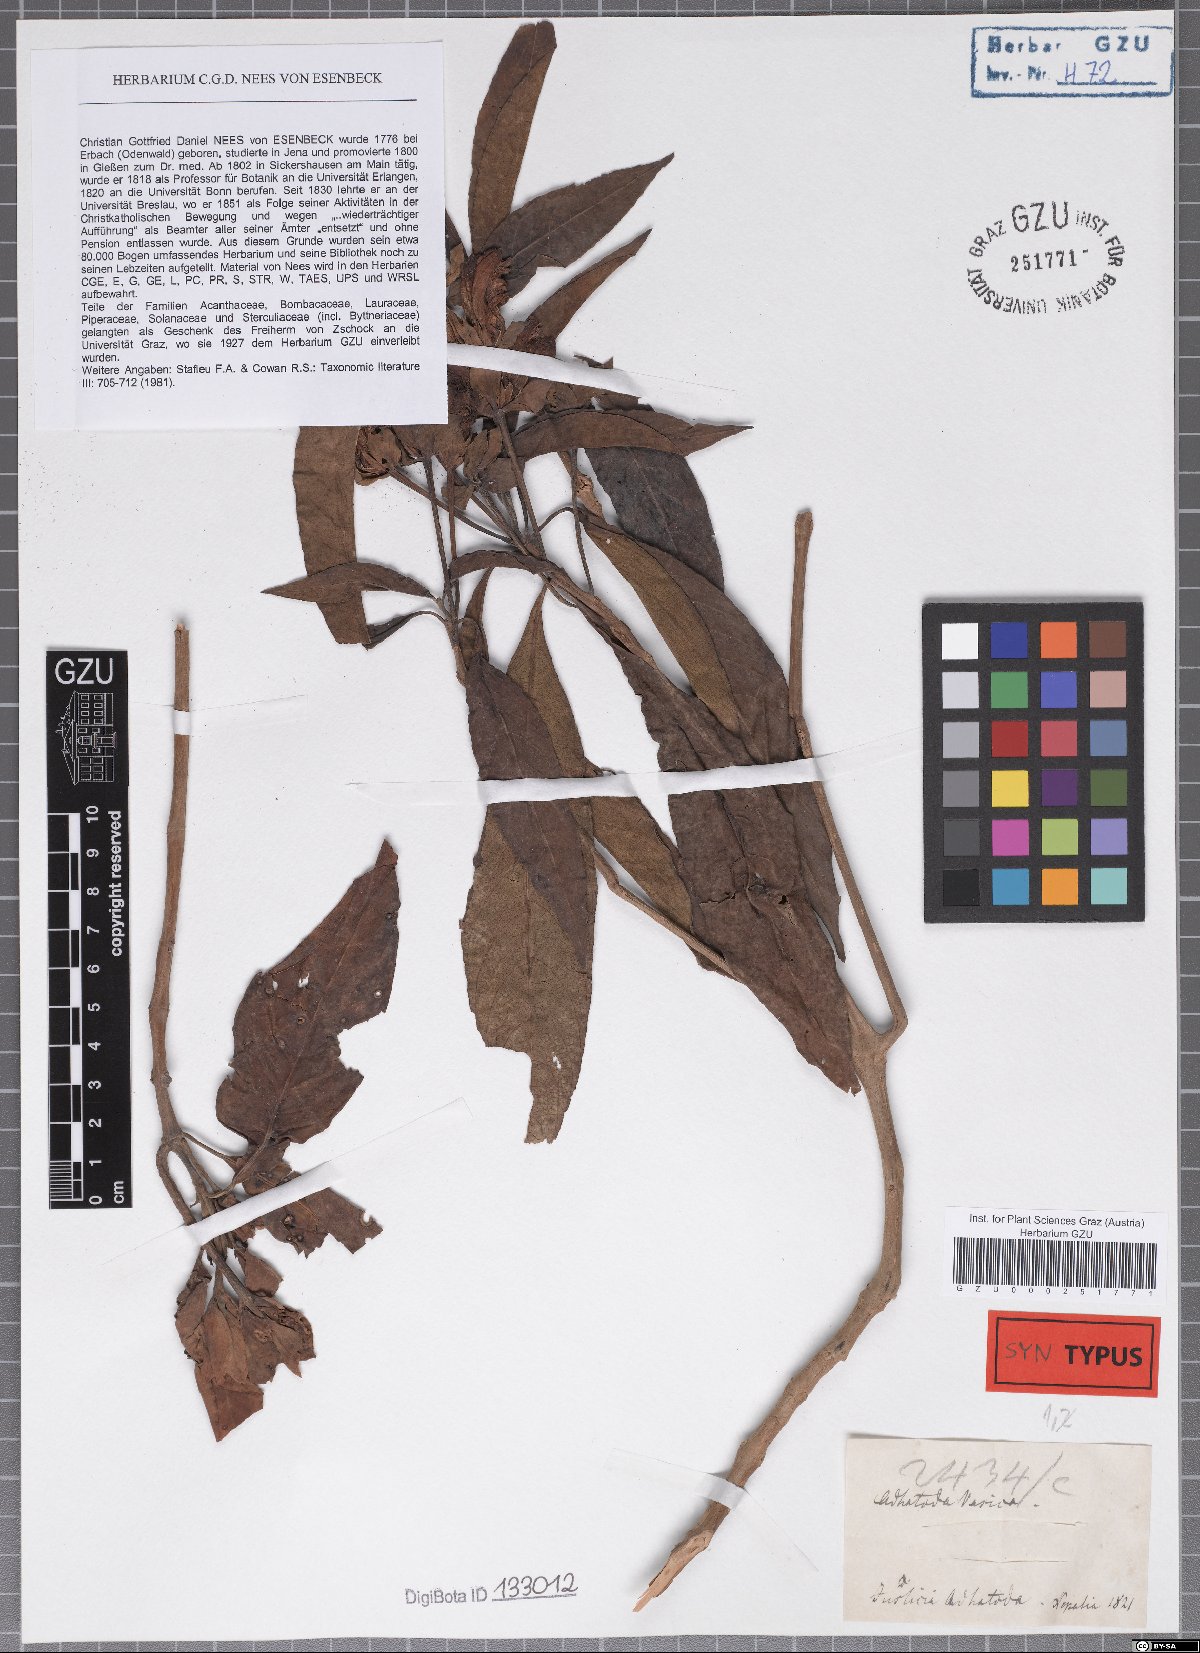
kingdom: Plantae
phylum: Tracheophyta
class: Magnoliopsida
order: Lamiales
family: Acanthaceae
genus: Justicia
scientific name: Justicia adhatoda
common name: Malabar nut
